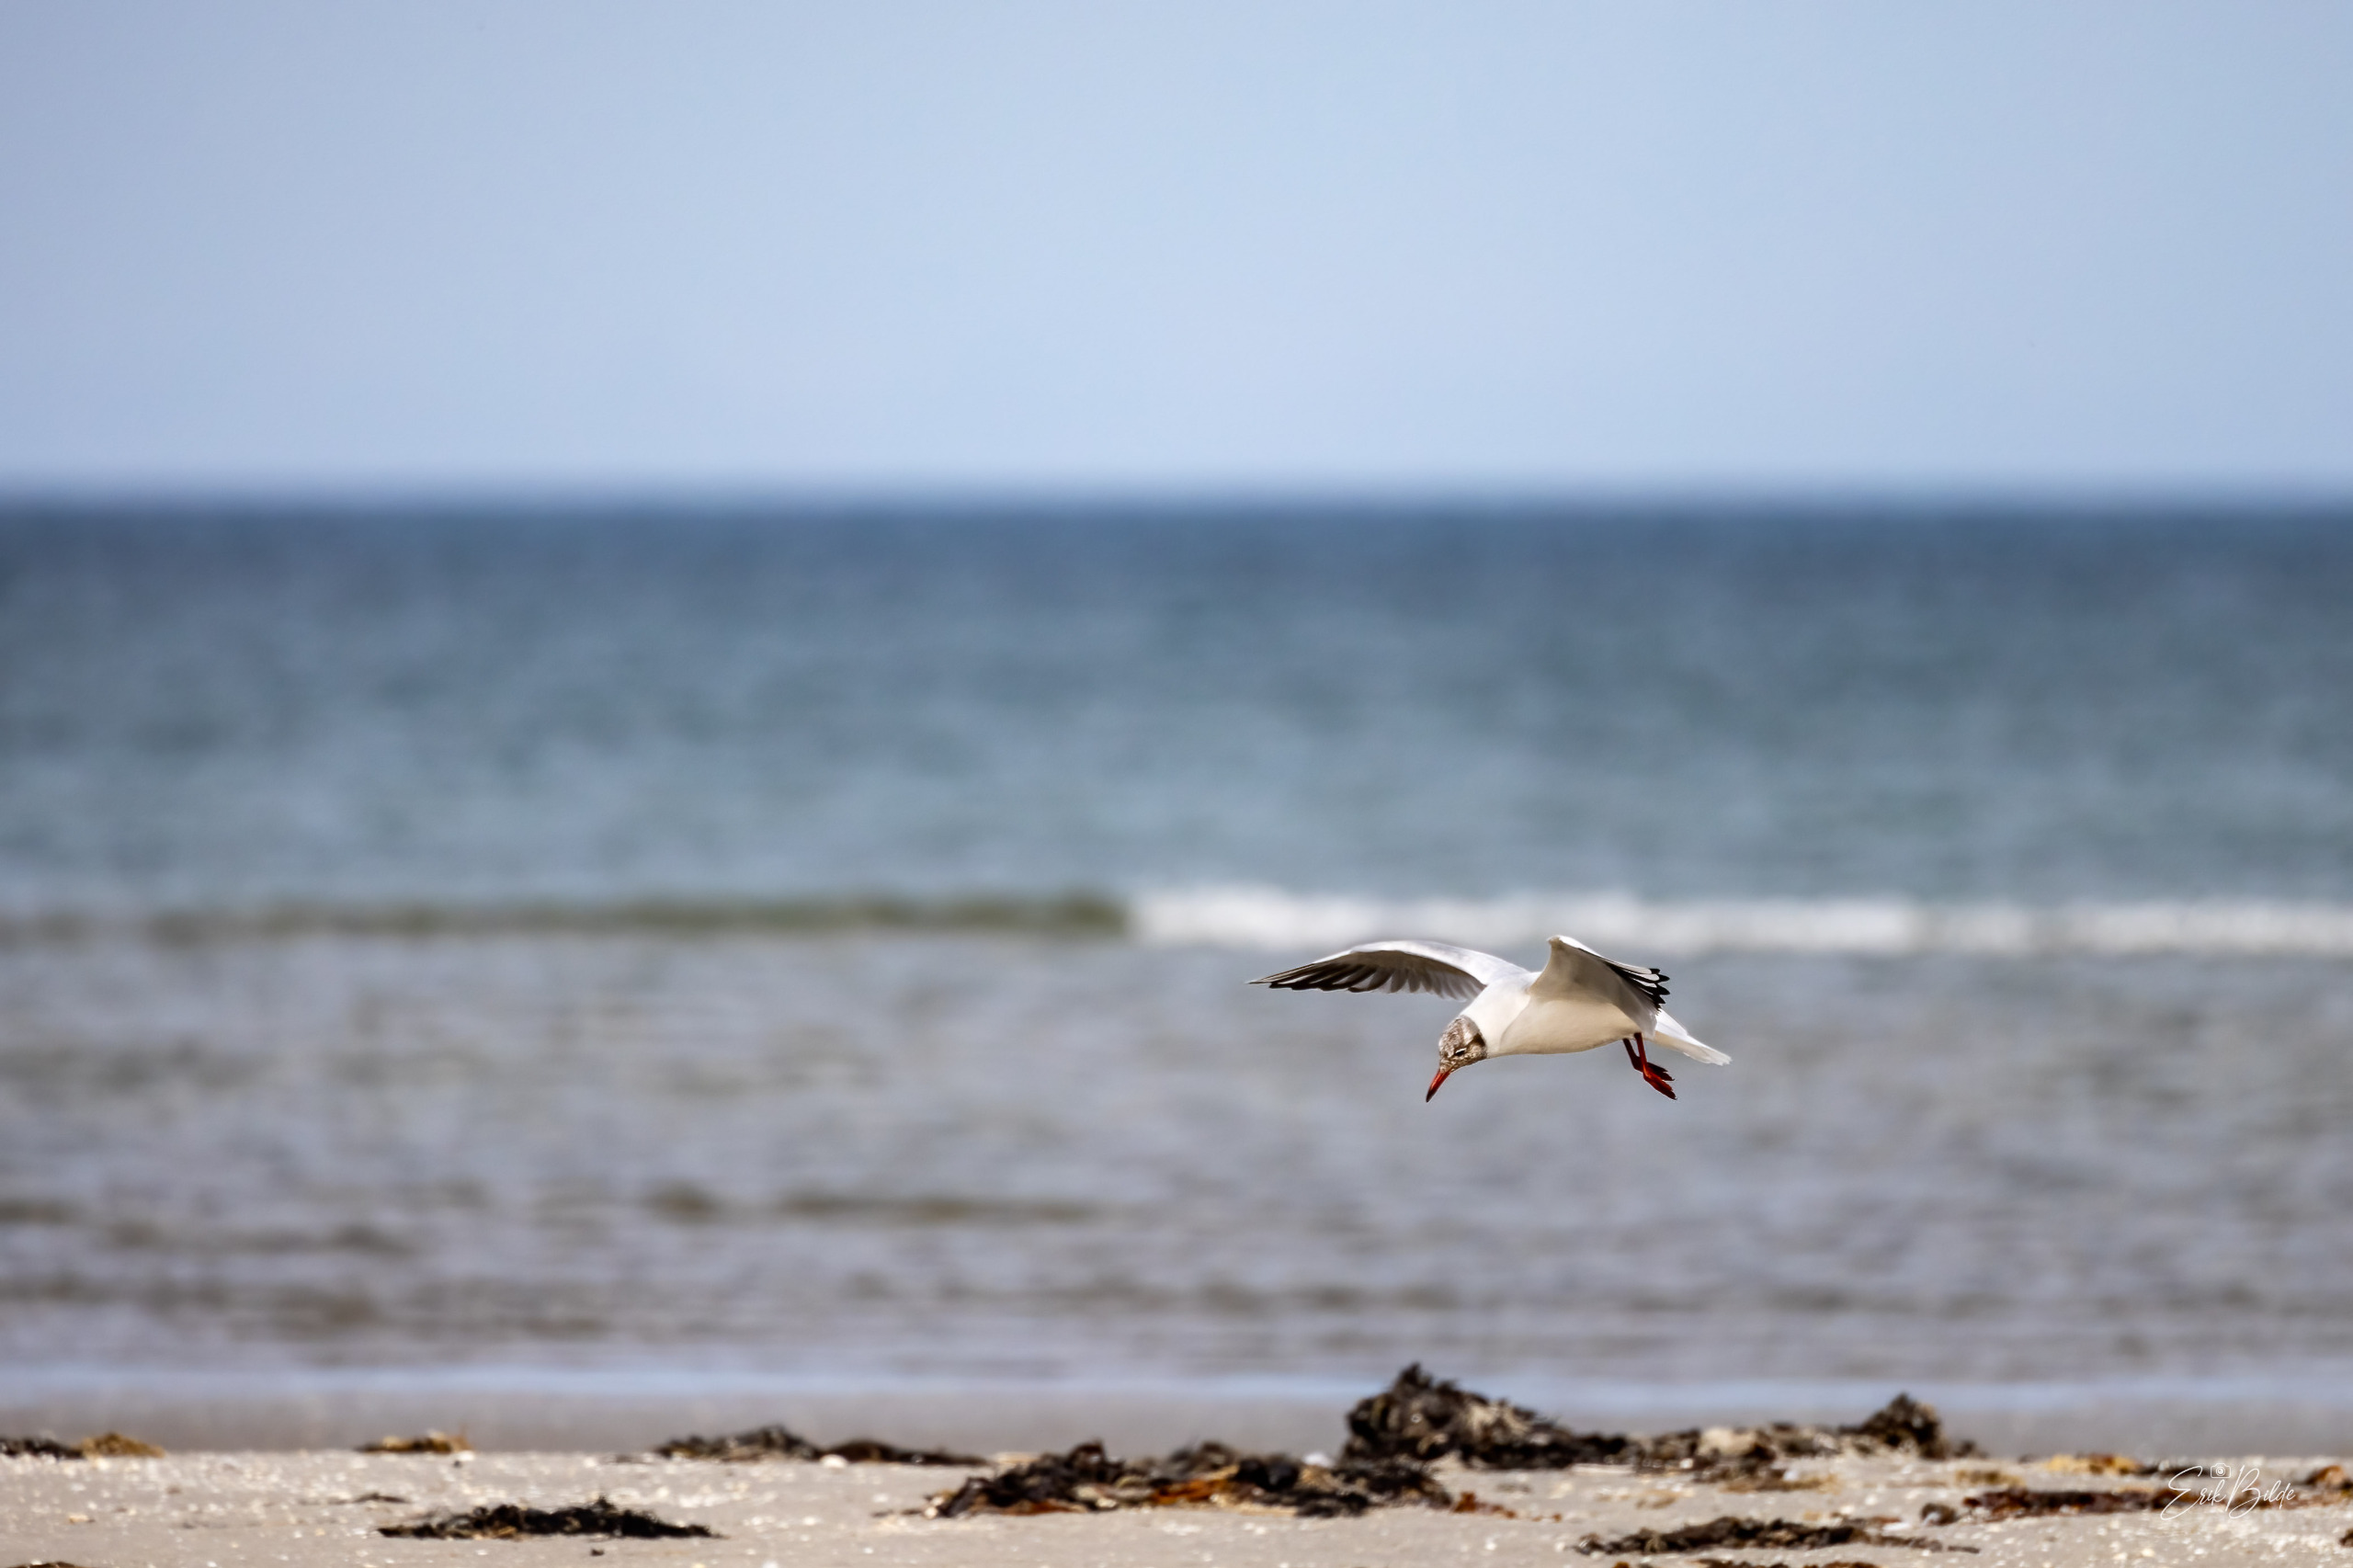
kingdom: Animalia
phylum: Chordata
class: Aves
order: Charadriiformes
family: Laridae
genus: Chroicocephalus
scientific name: Chroicocephalus ridibundus
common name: Hættemåge
